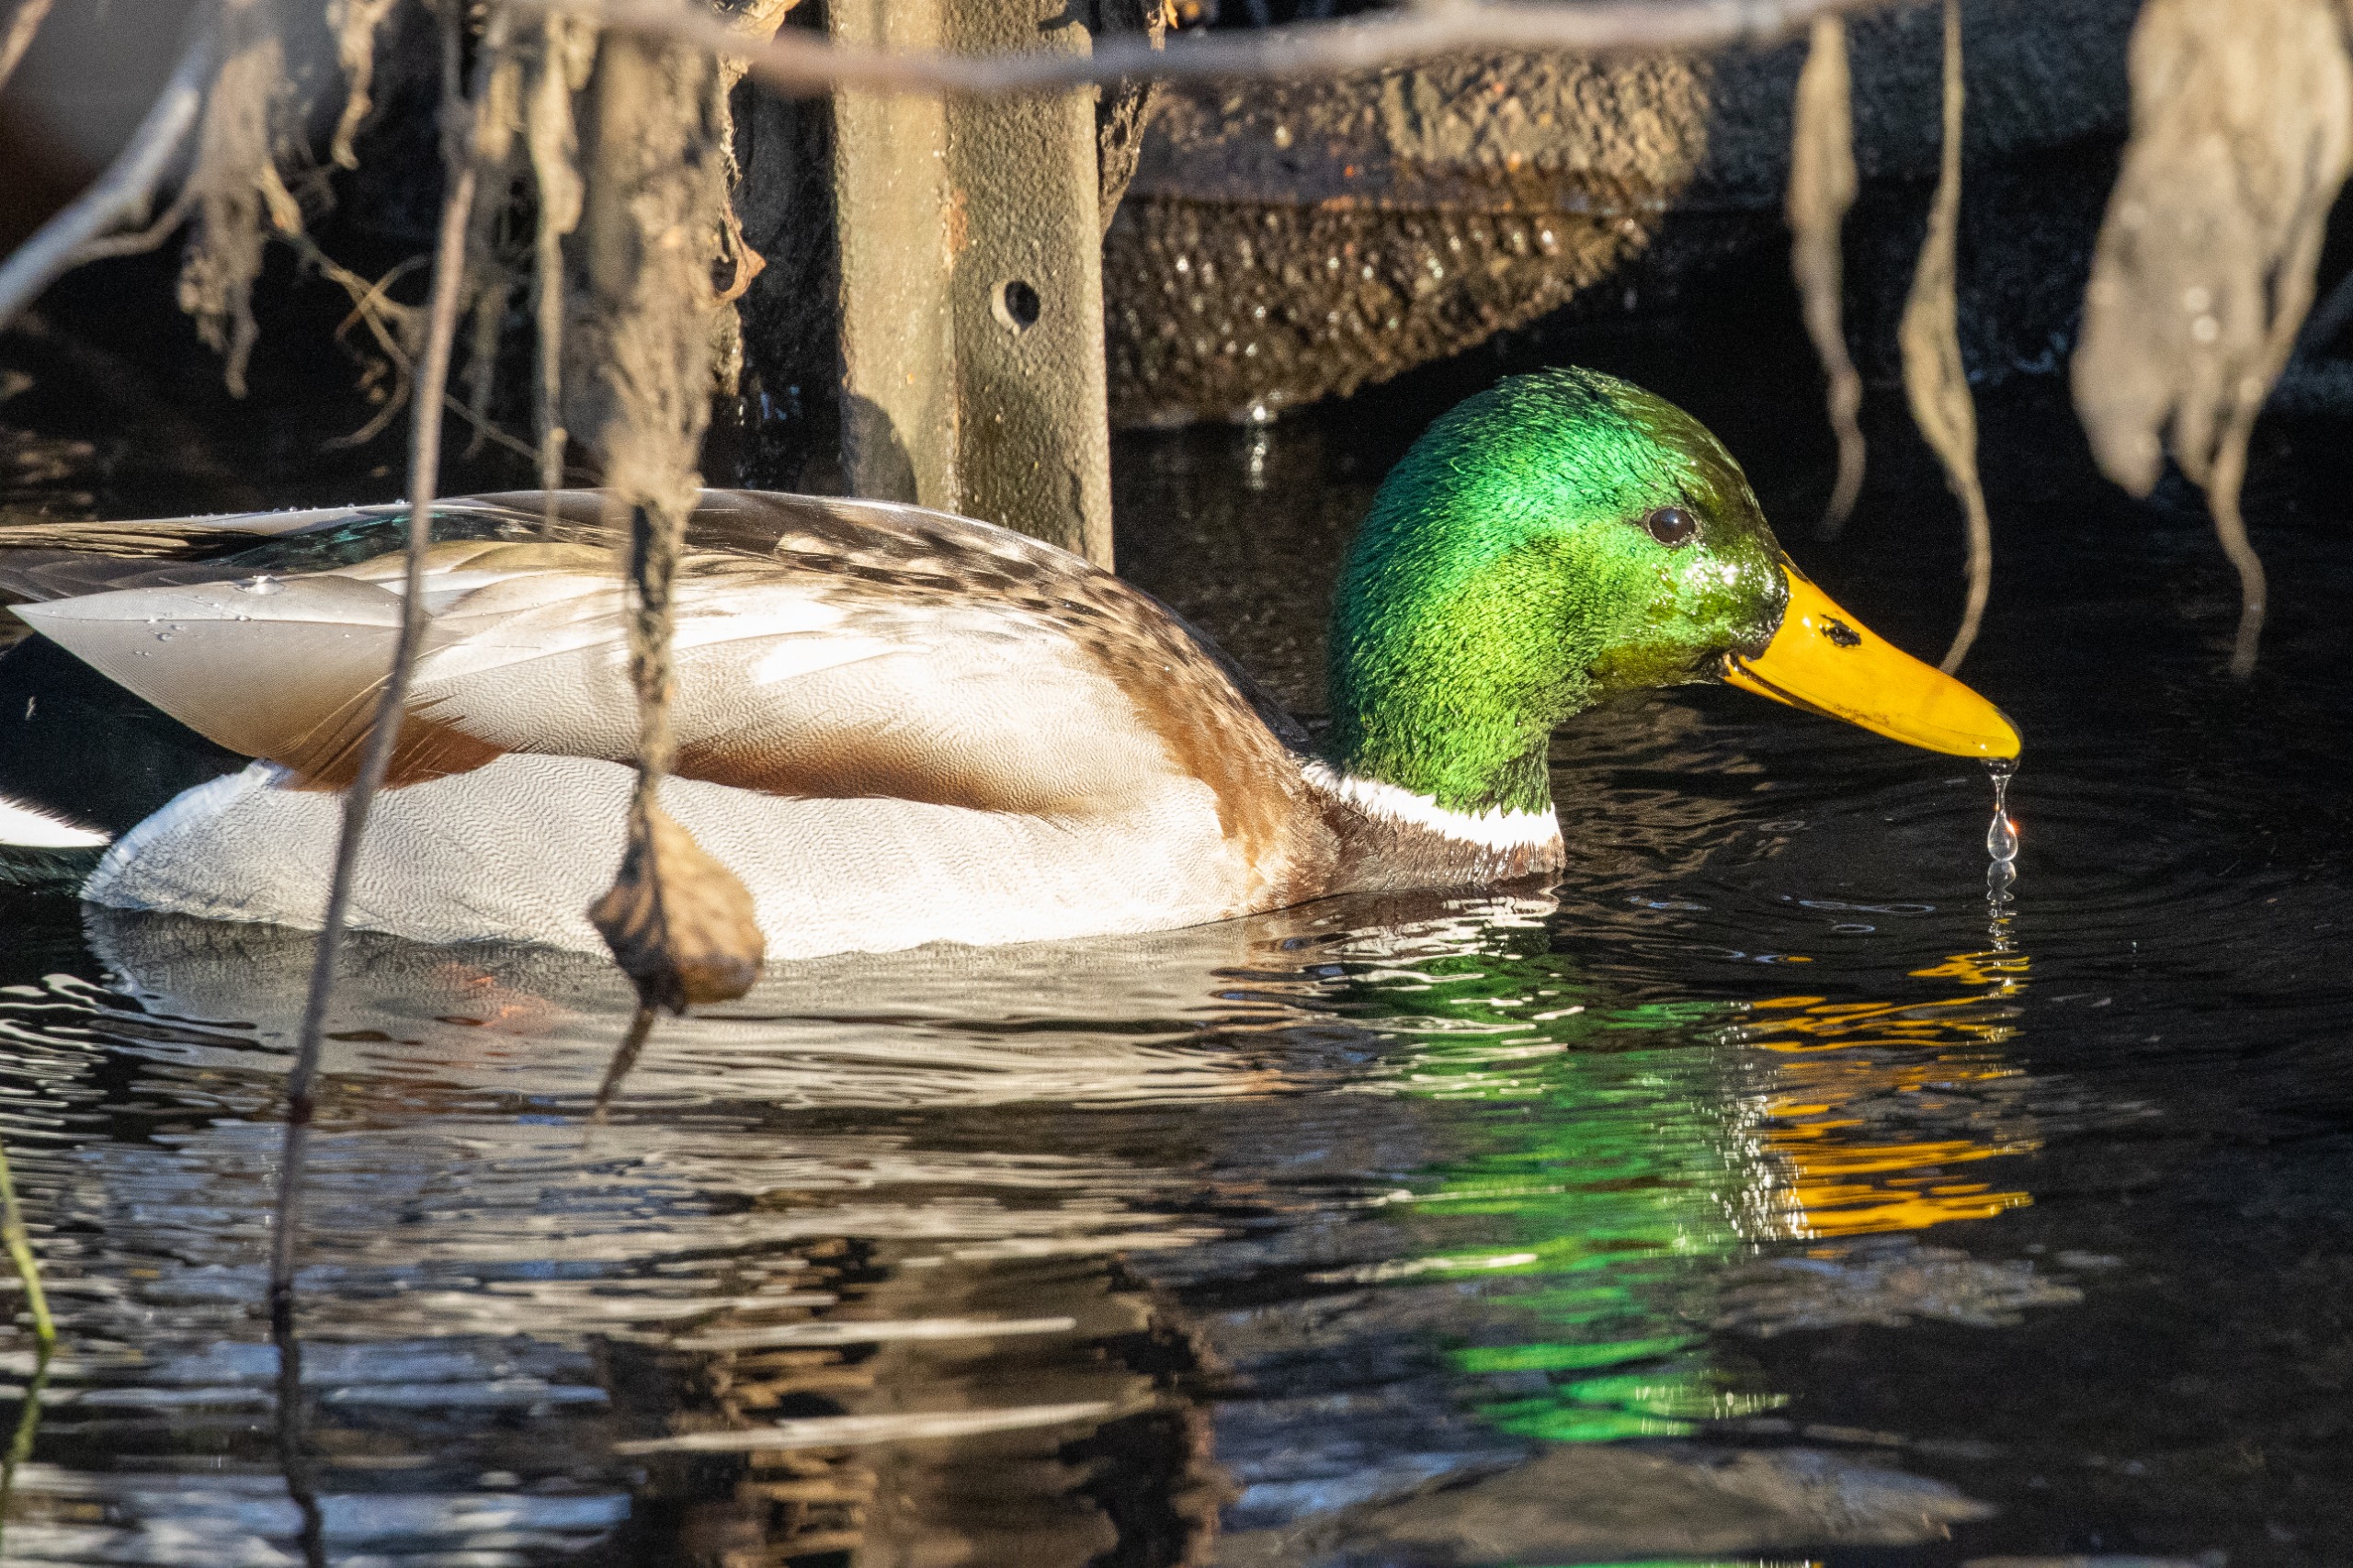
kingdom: Animalia
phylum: Chordata
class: Aves
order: Anseriformes
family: Anatidae
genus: Anas
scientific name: Anas platyrhynchos
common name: Gråand
